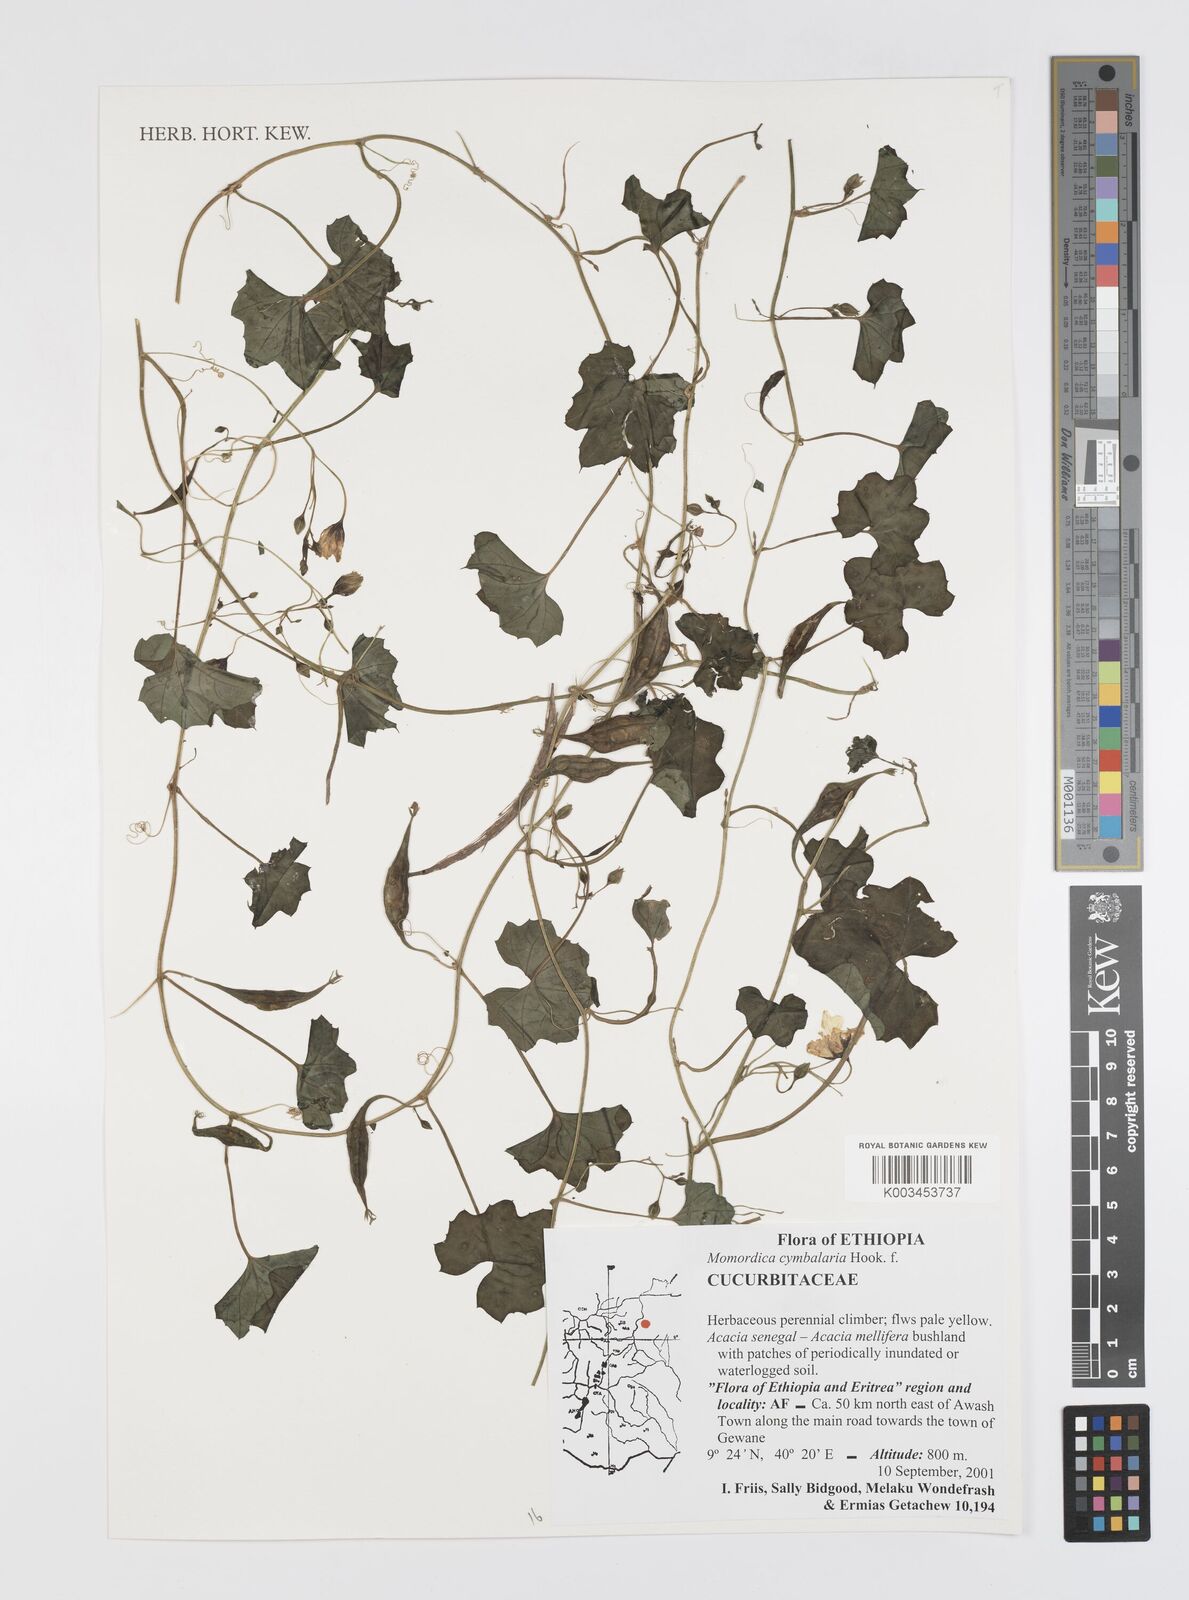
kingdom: Plantae
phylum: Tracheophyta
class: Magnoliopsida
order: Cucurbitales
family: Cucurbitaceae
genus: Momordica
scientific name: Momordica cymbalaria
